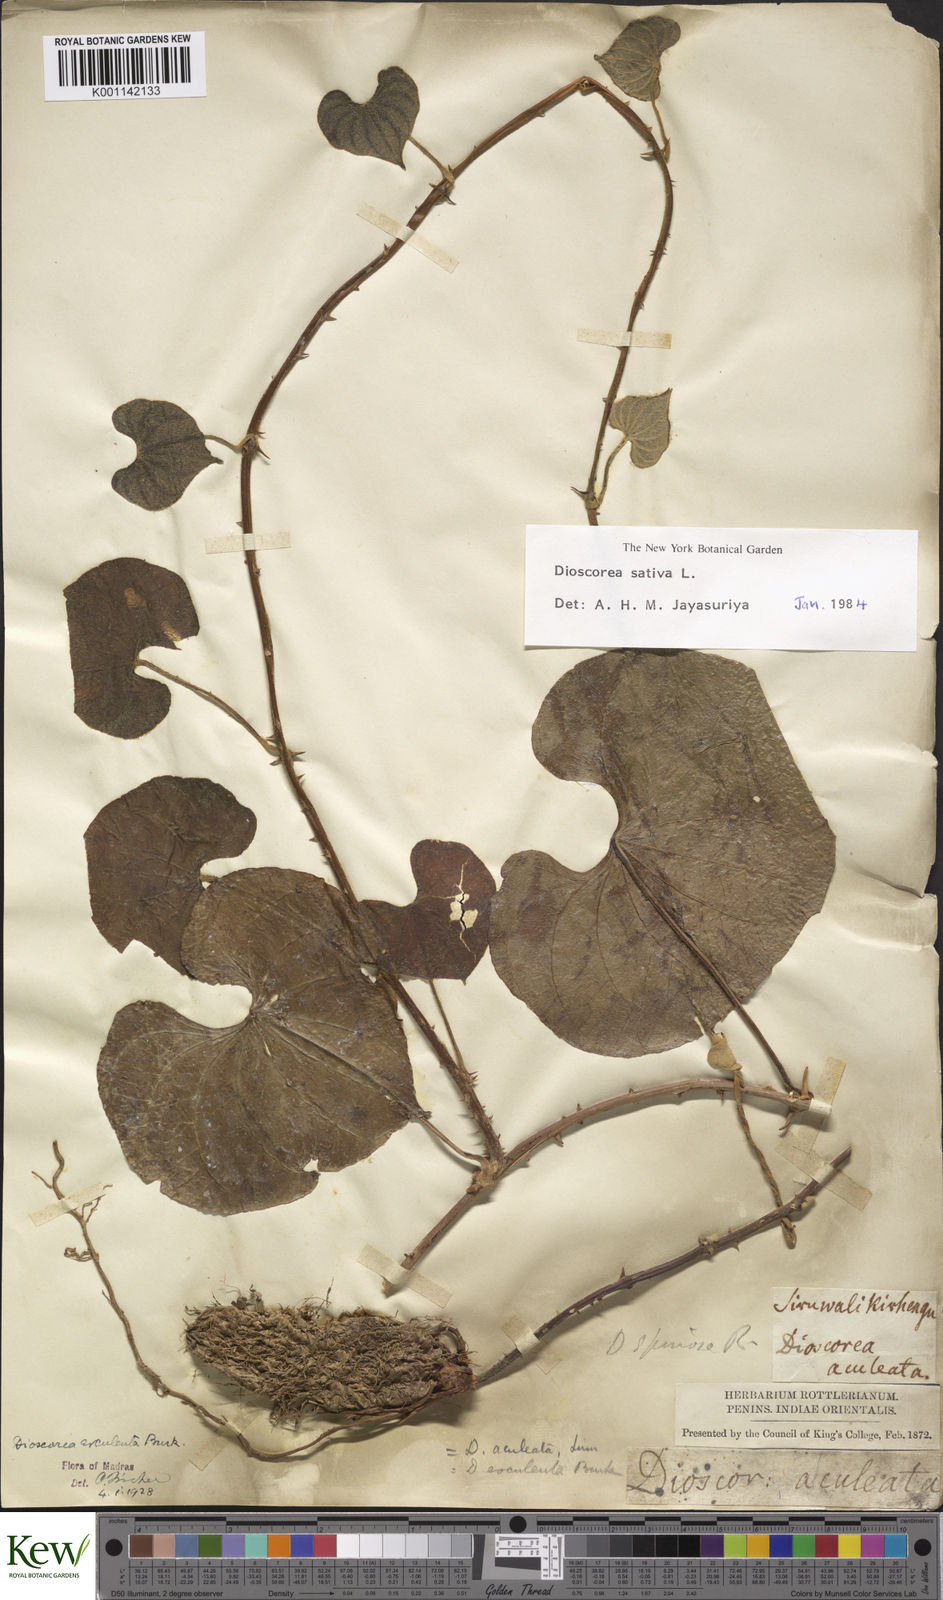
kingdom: Plantae
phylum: Tracheophyta
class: Liliopsida
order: Dioscoreales
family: Dioscoreaceae
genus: Dioscorea
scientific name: Dioscorea esculenta
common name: Chinese yam
